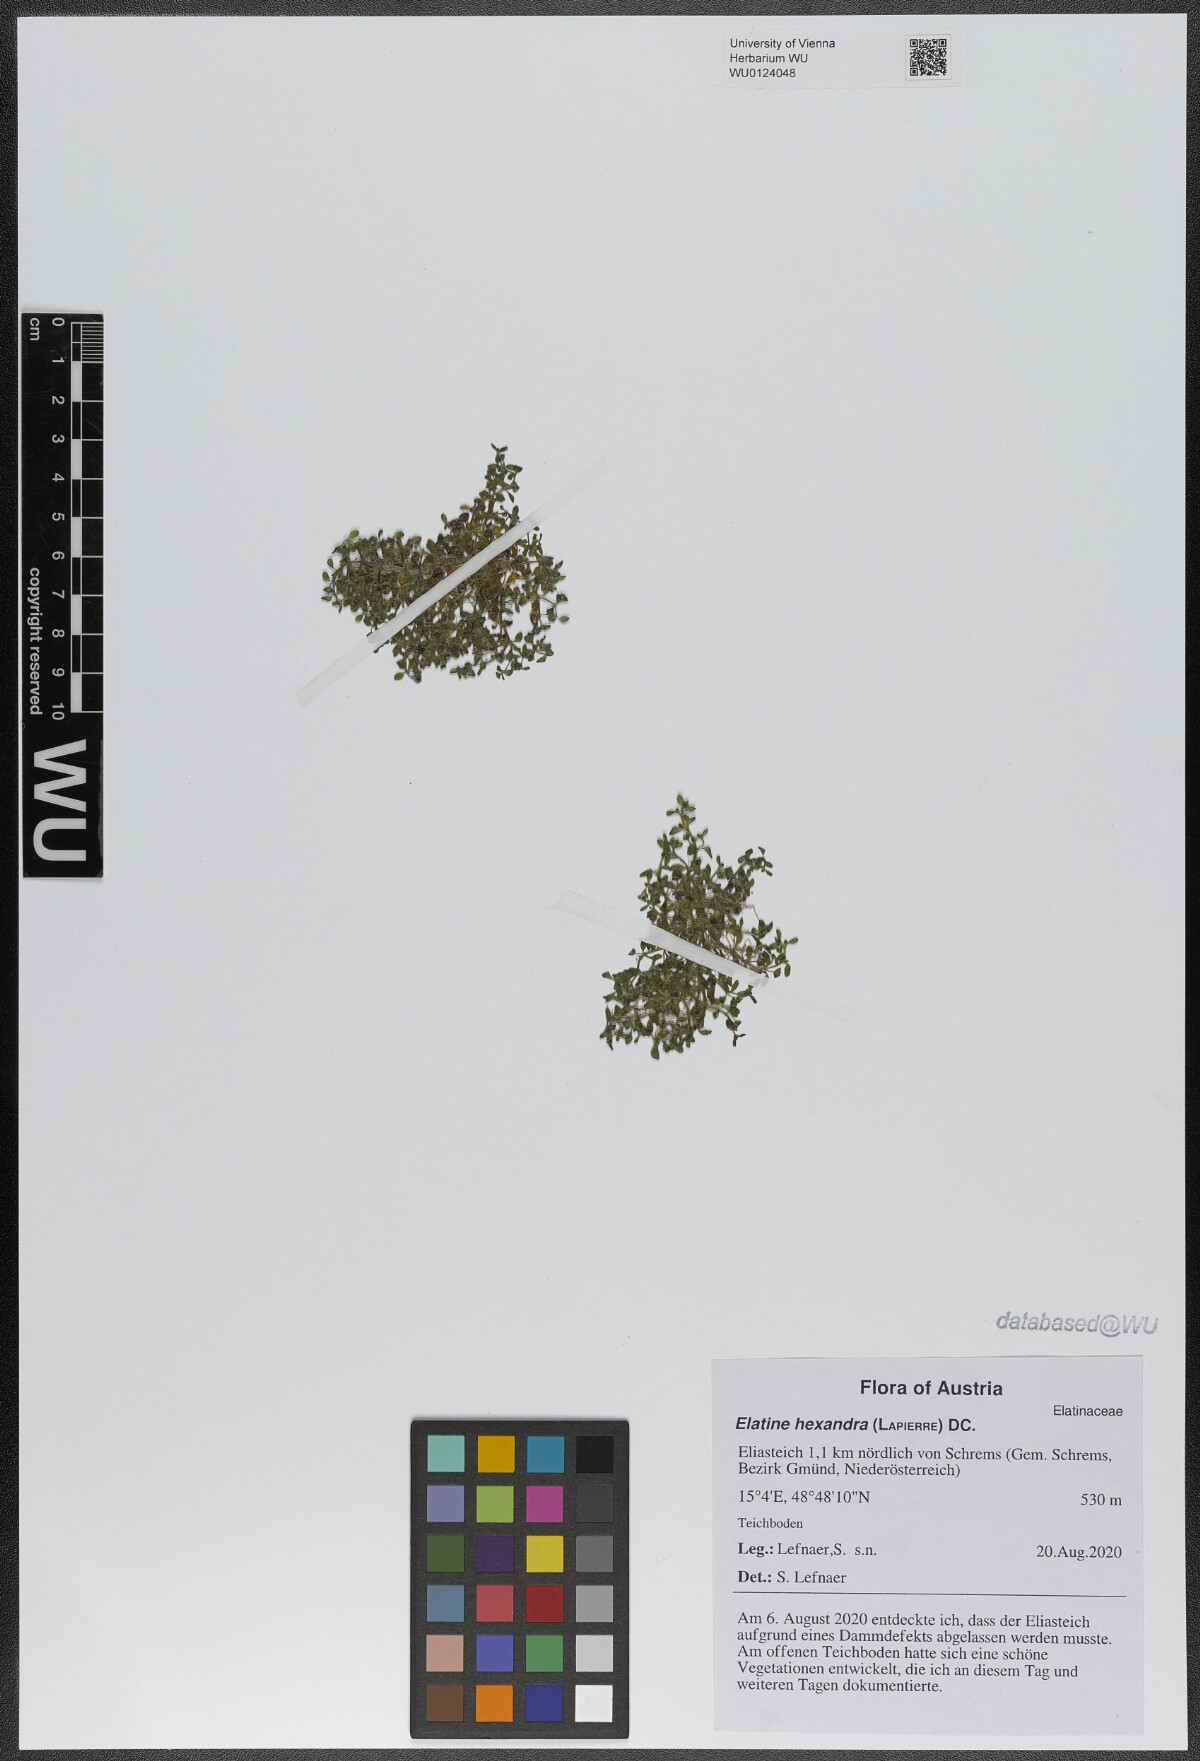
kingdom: Plantae
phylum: Tracheophyta
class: Magnoliopsida
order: Malpighiales
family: Elatinaceae
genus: Elatine
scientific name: Elatine hexandra
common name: Six-stamened waterwort
